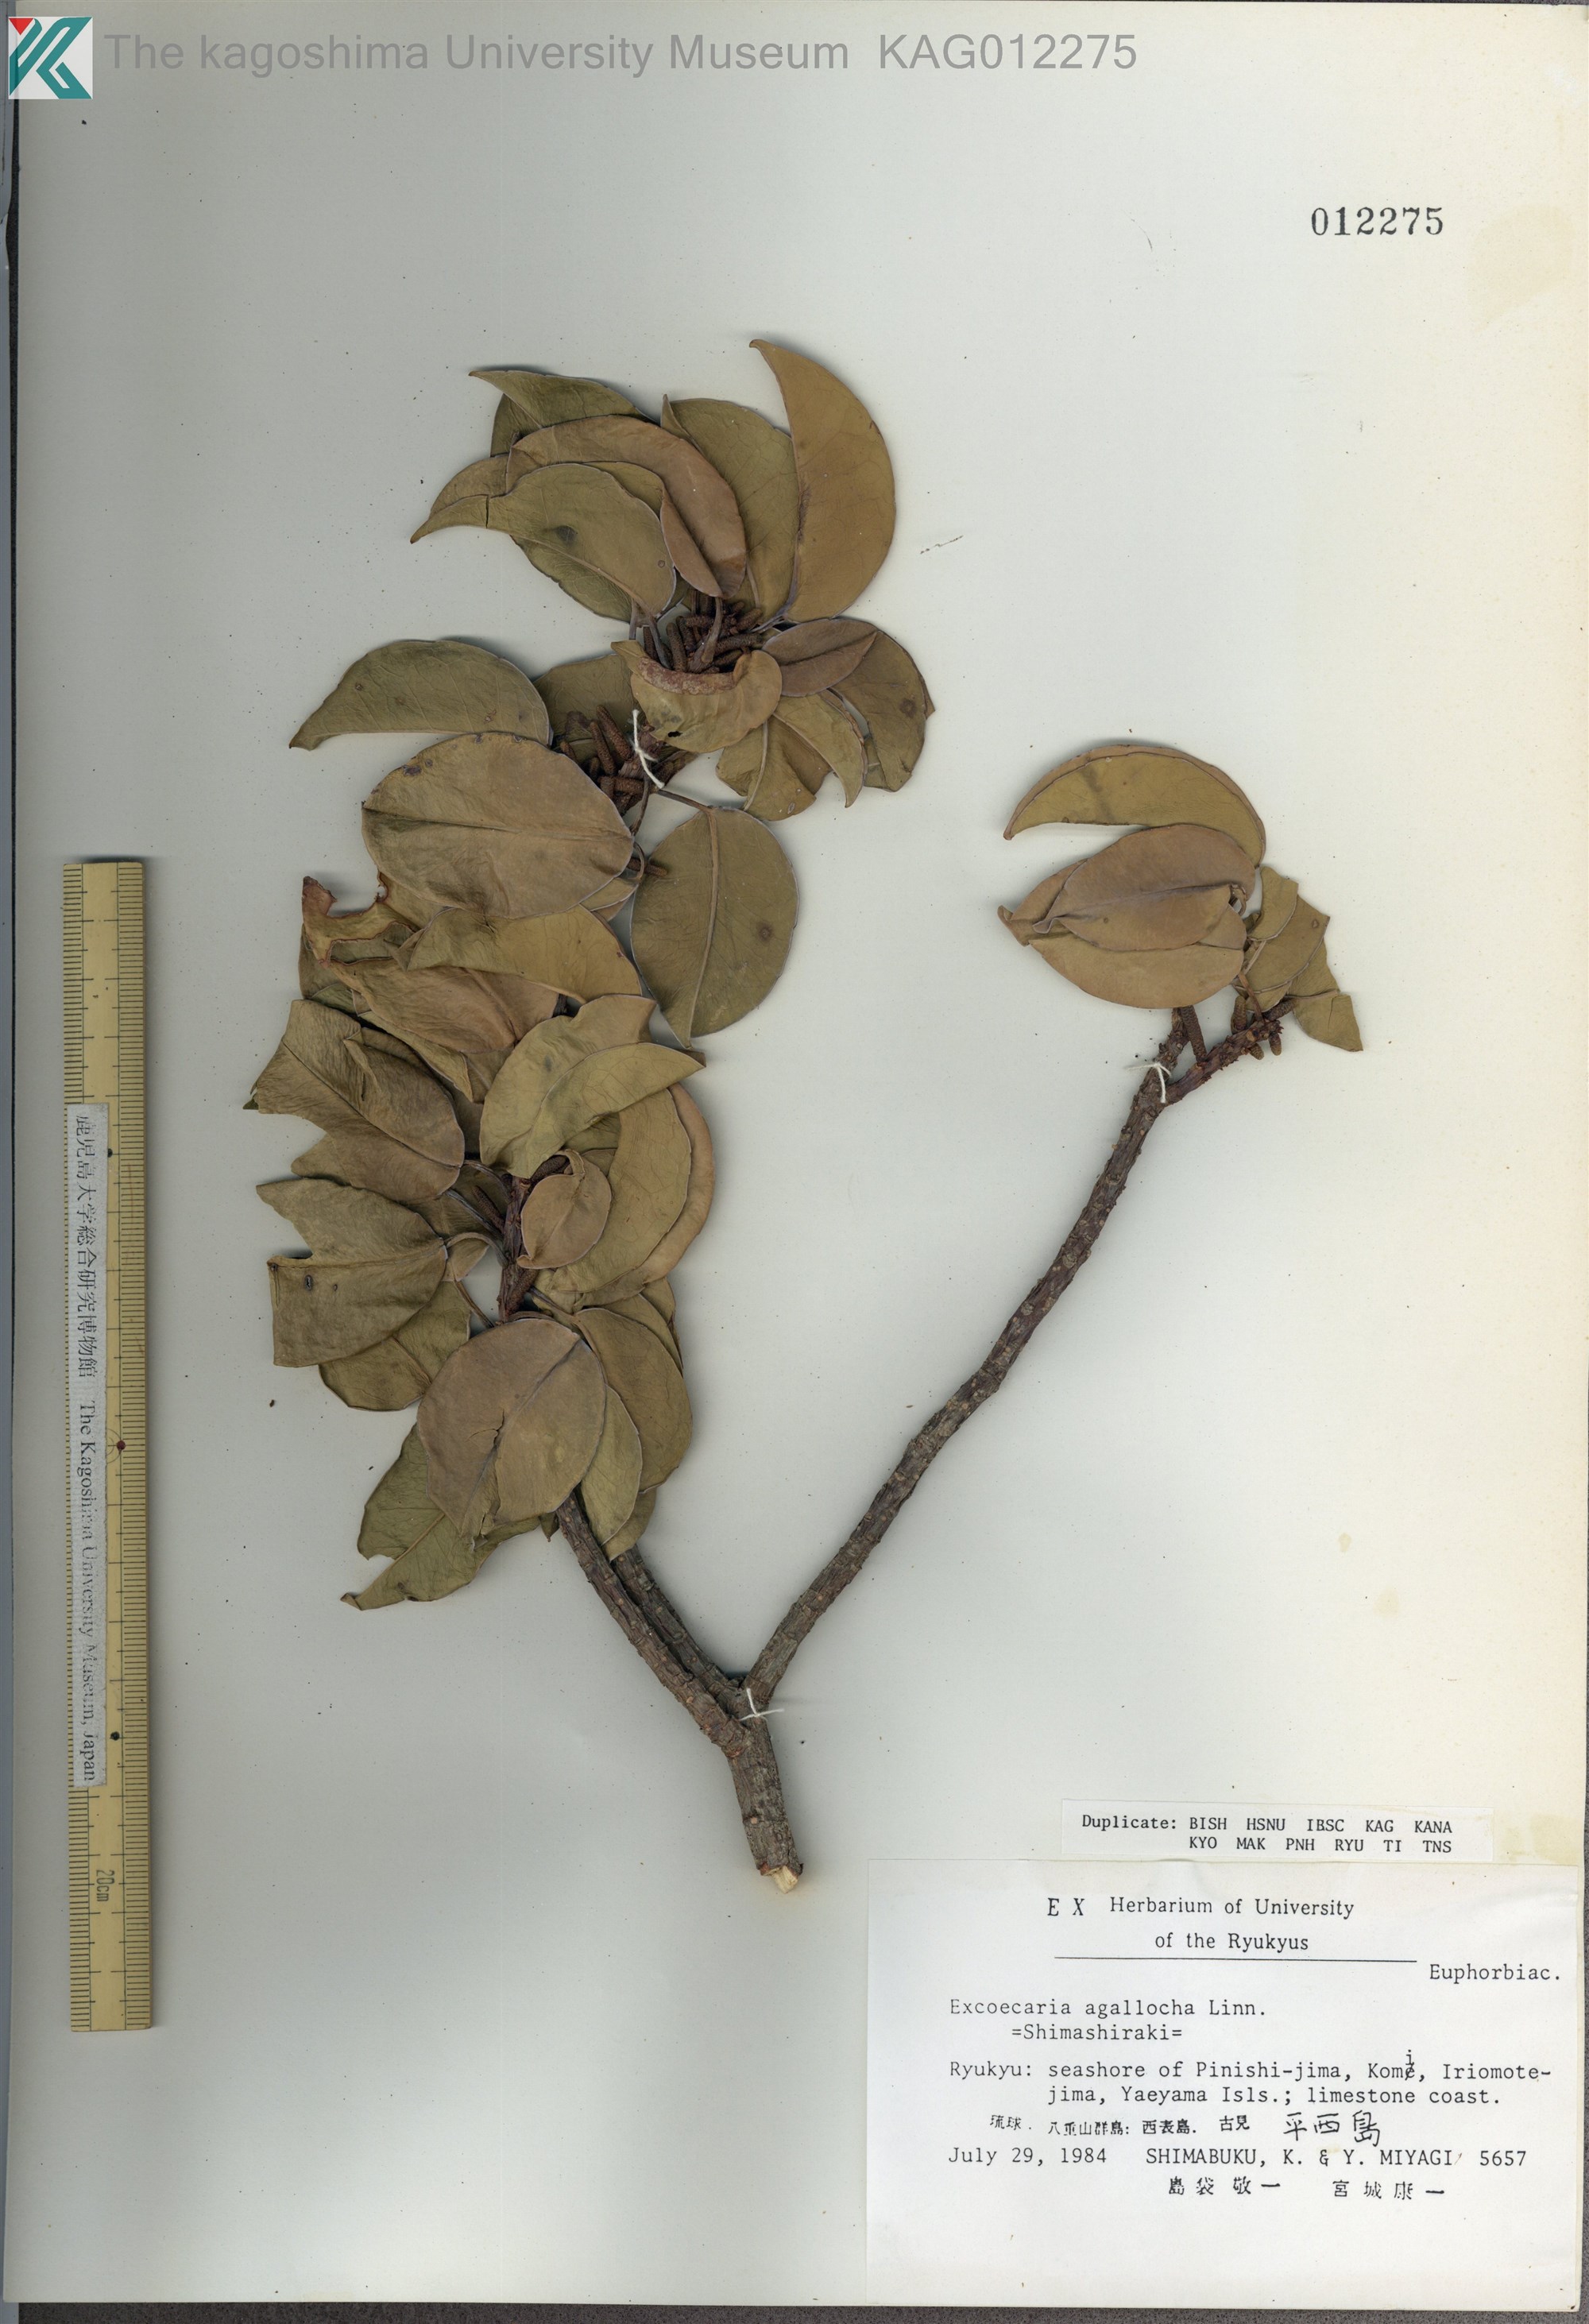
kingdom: Plantae
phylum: Tracheophyta
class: Magnoliopsida
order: Malpighiales
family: Euphorbiaceae
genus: Excoecaria
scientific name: Excoecaria agallocha
